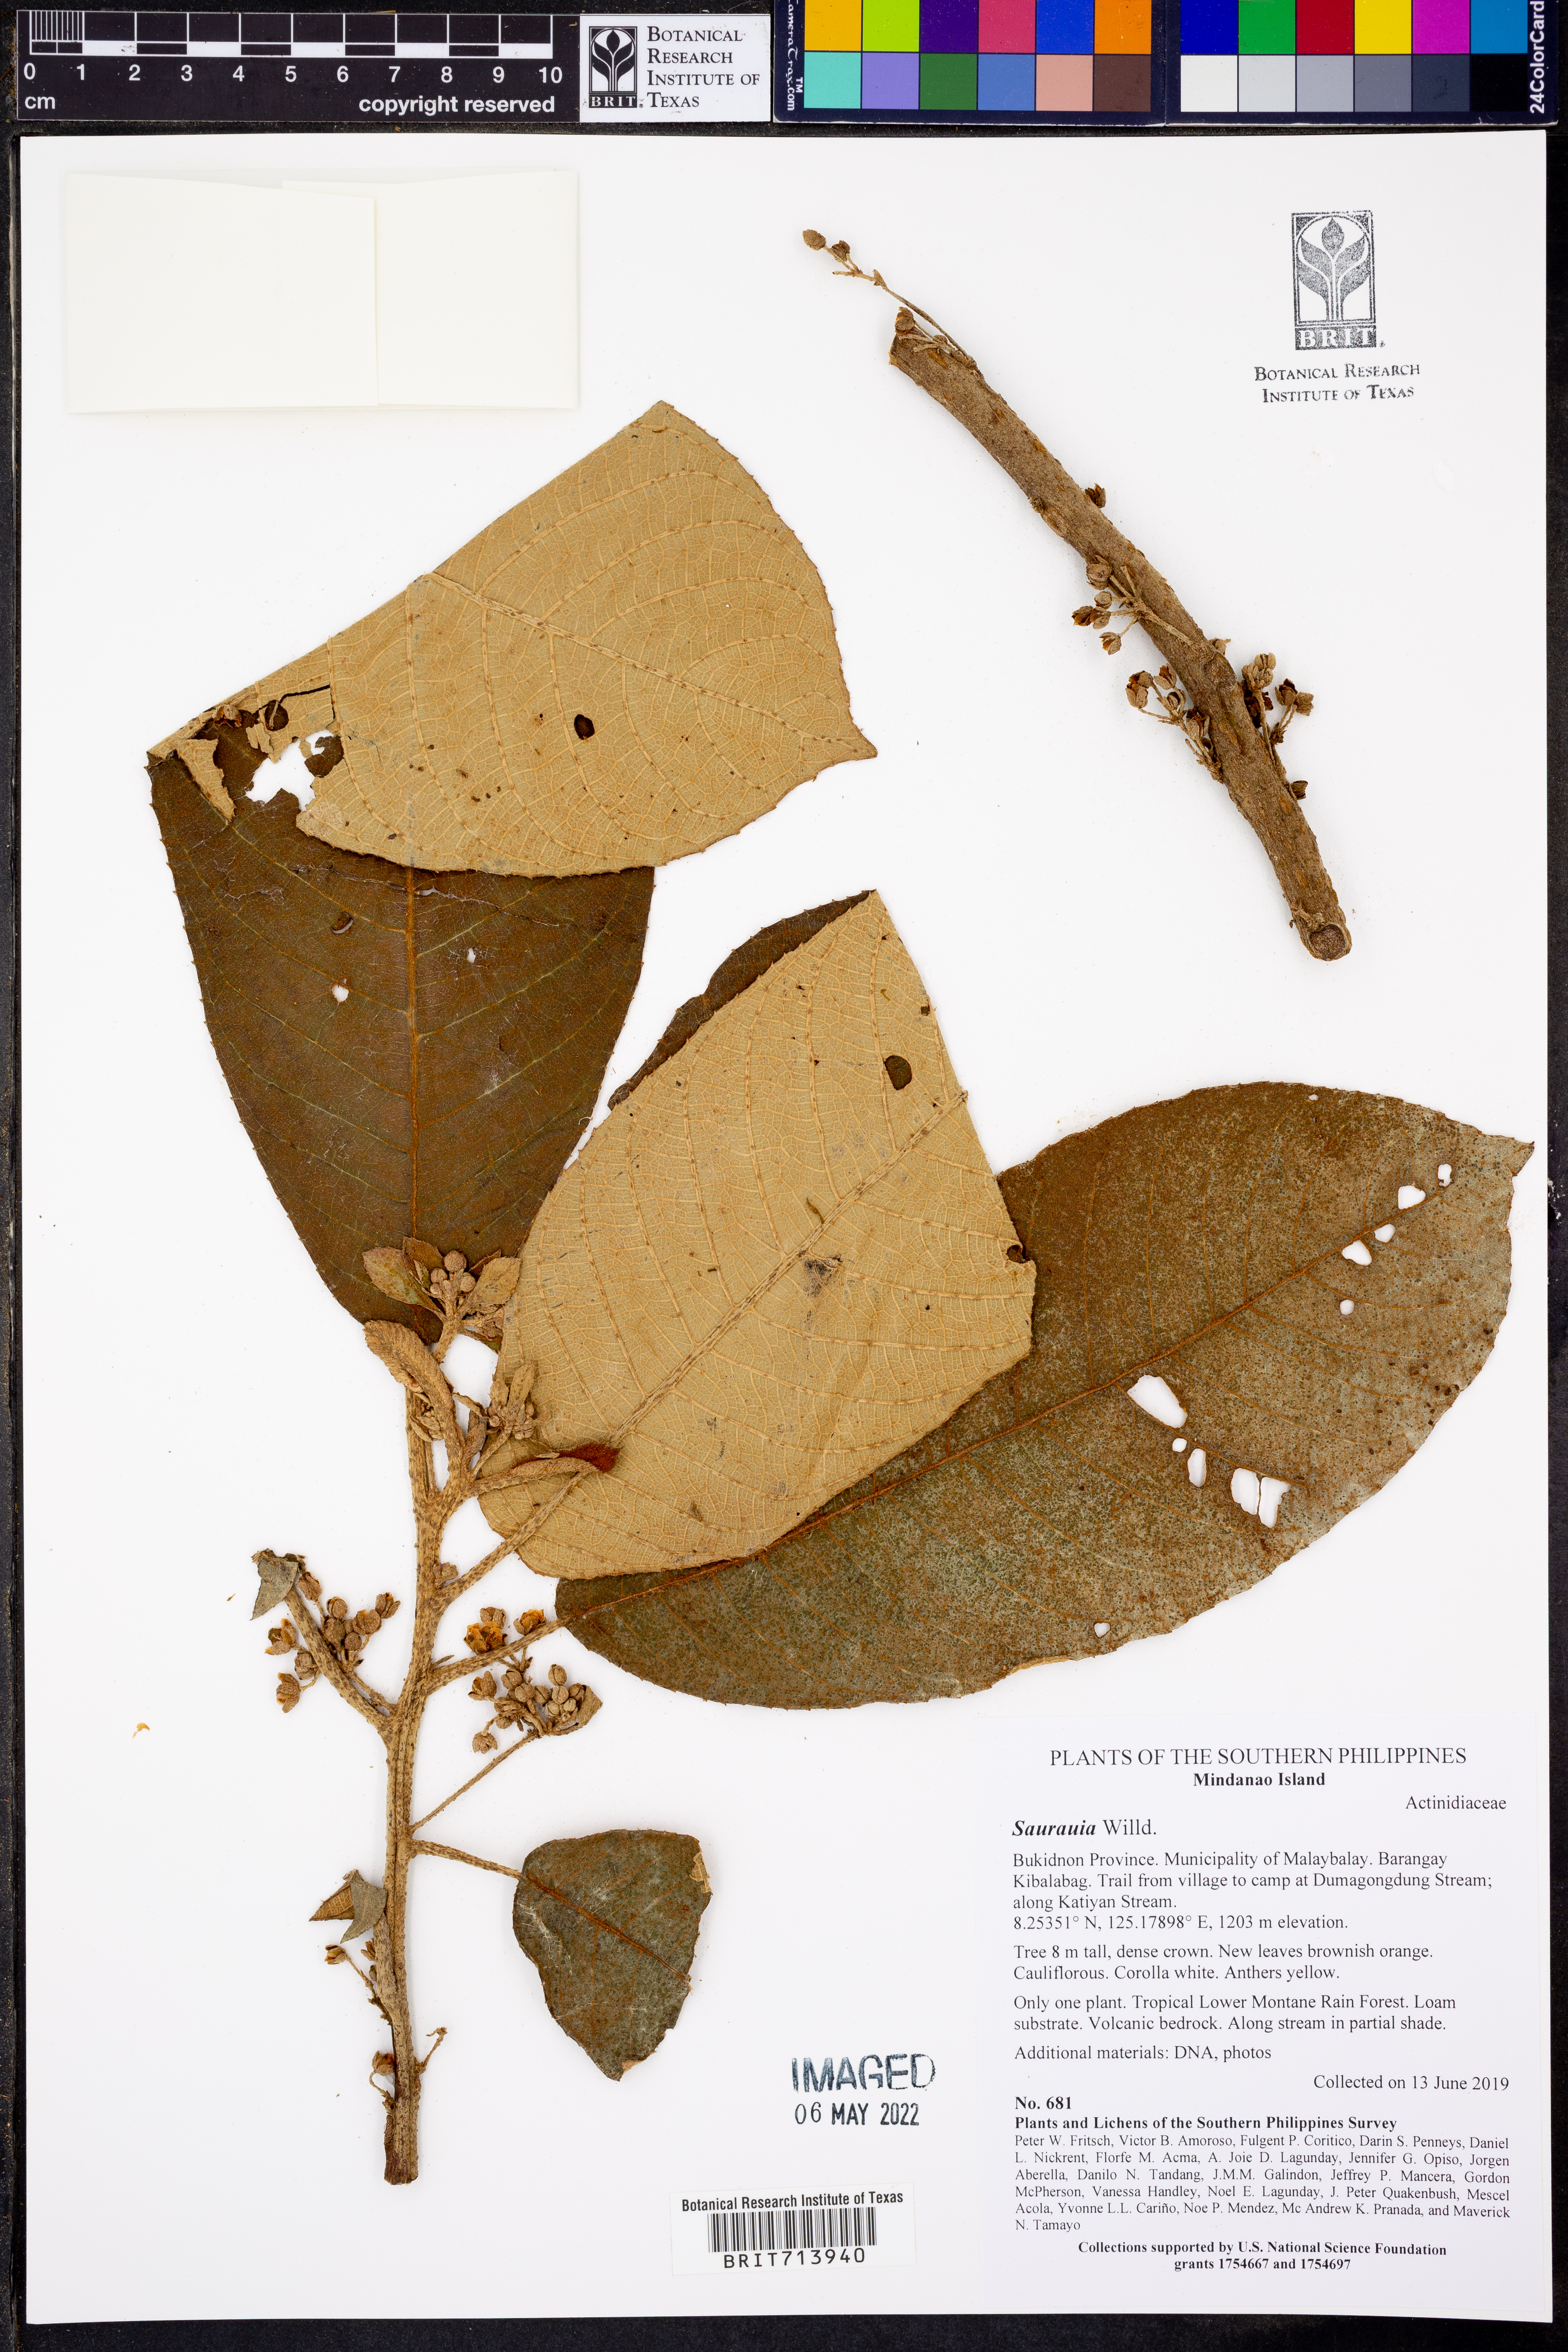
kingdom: Plantae
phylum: Tracheophyta
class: Magnoliopsida
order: Ericales
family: Actinidiaceae
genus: Saurauia
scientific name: Saurauia
